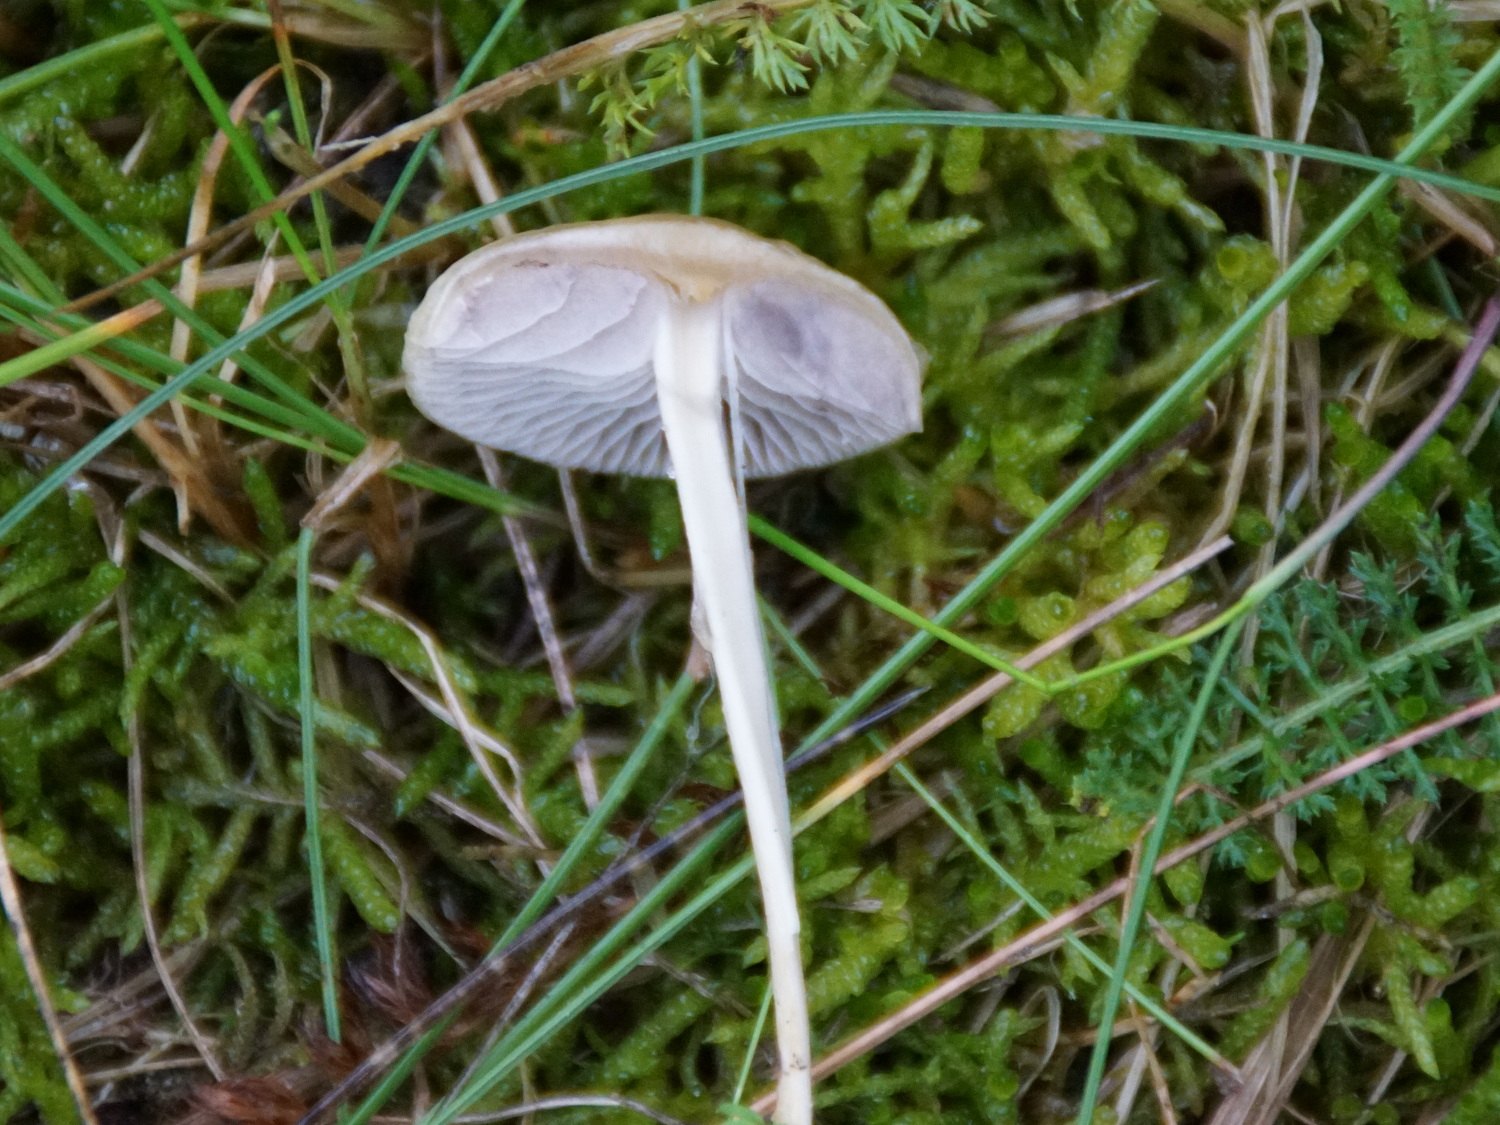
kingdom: Fungi
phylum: Basidiomycota
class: Agaricomycetes
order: Agaricales
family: Strophariaceae
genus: Protostropharia
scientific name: Protostropharia semiglobata
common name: halvkugleformet bredblad
